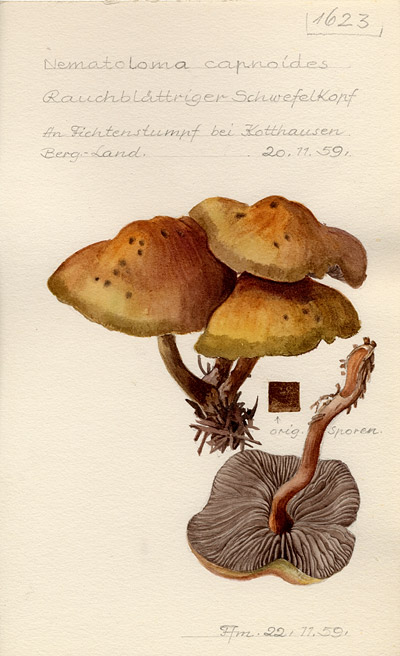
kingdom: Fungi
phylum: Basidiomycota
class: Agaricomycetes
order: Agaricales
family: Strophariaceae
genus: Hypholoma
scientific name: Hypholoma capnoides
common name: Conifer tuft
